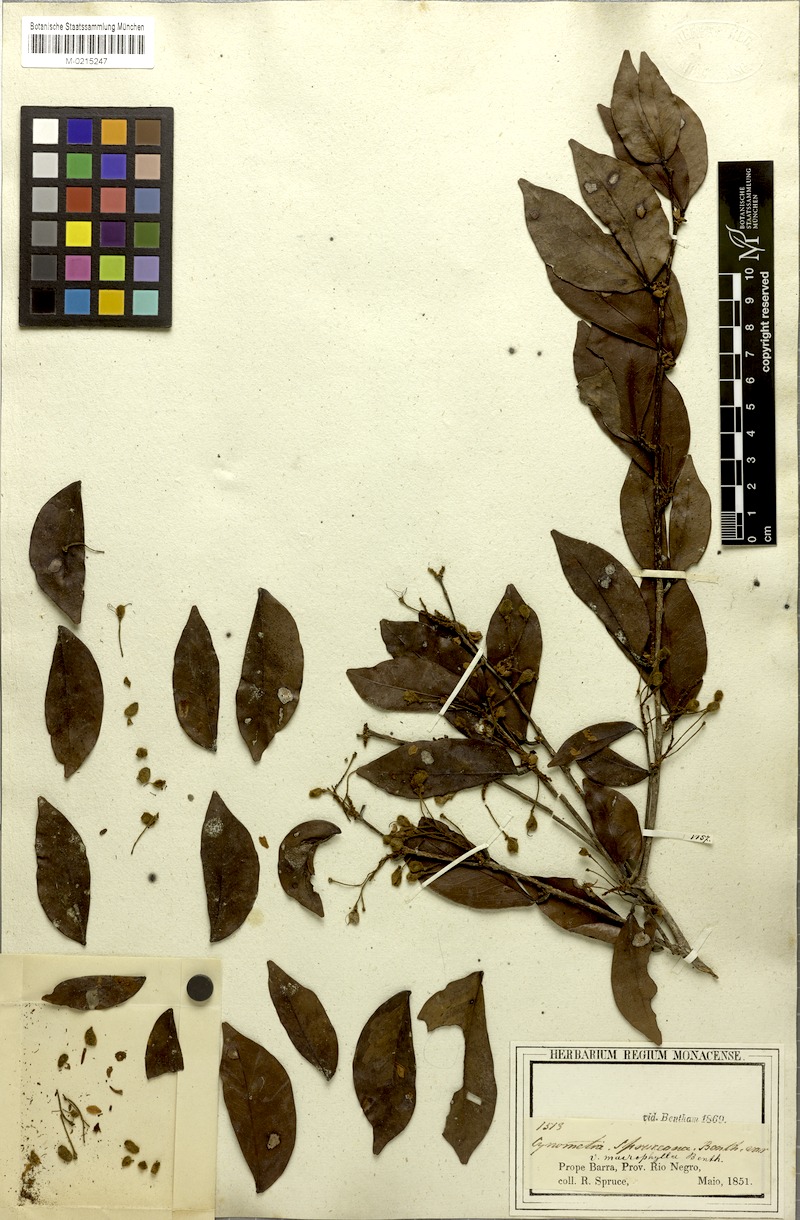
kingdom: Plantae
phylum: Tracheophyta
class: Magnoliopsida
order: Fabales
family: Fabaceae
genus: Hymenaea
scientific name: Hymenaea martiana
